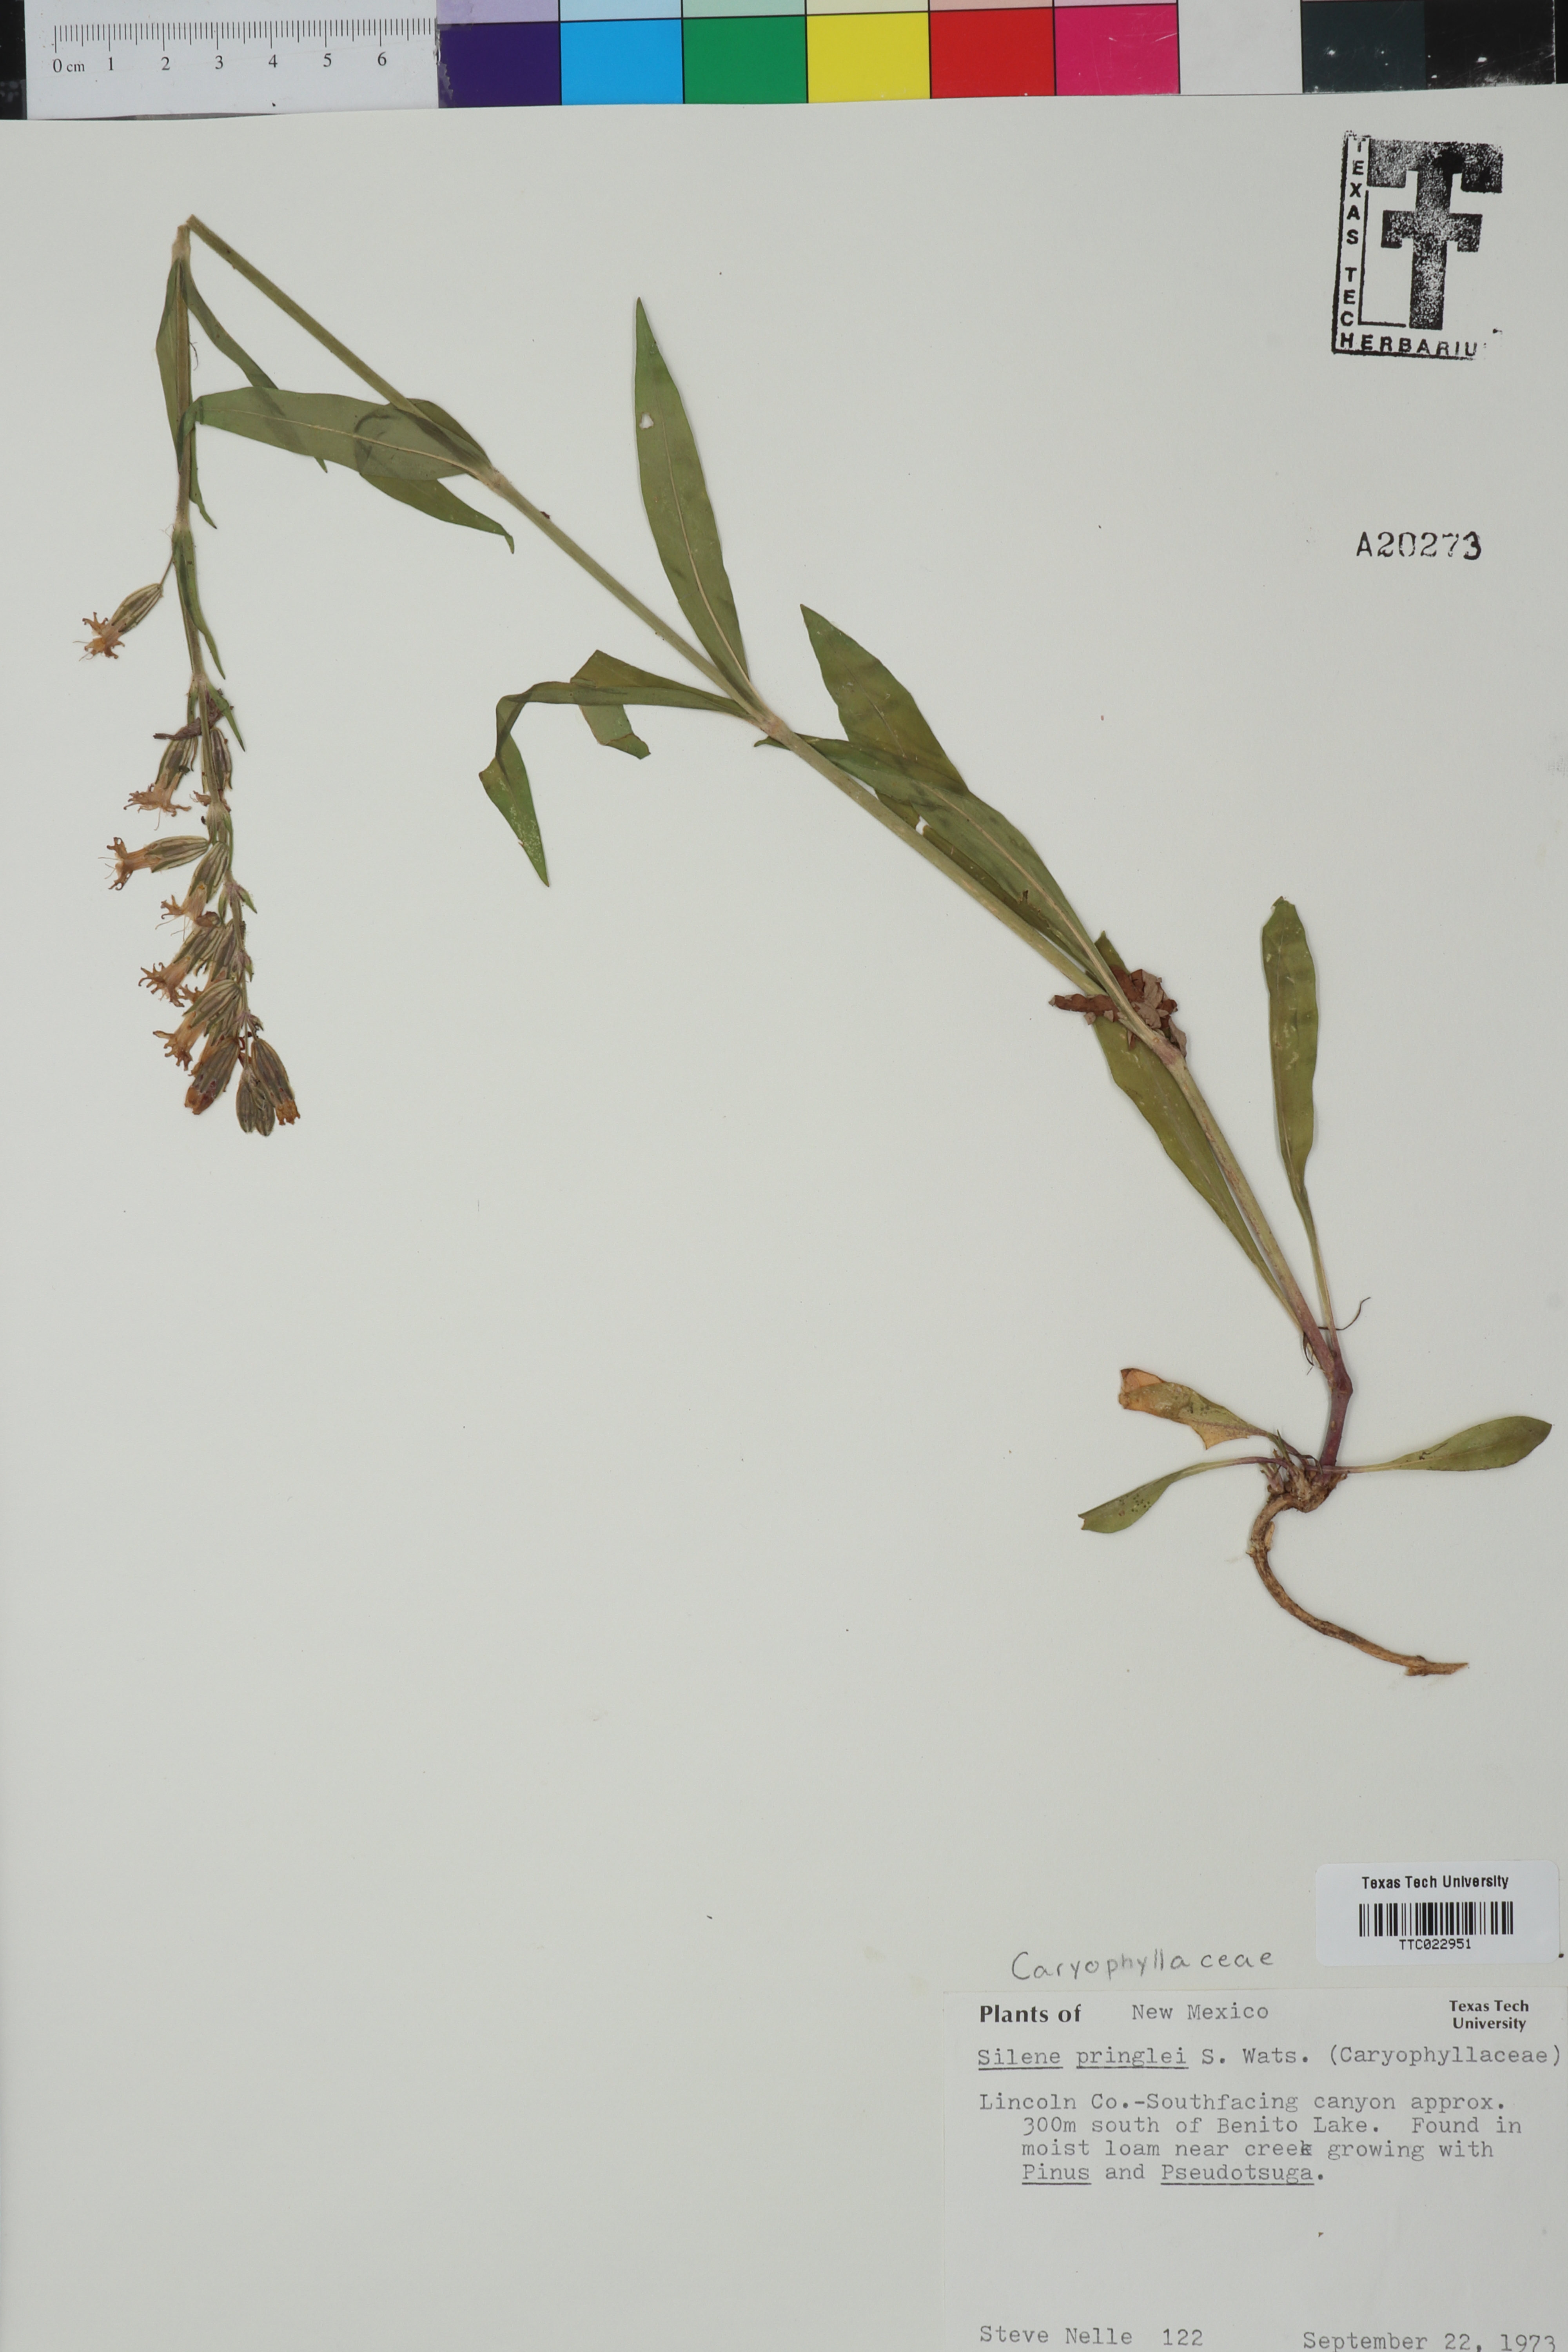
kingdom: Plantae
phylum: Tracheophyta
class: Magnoliopsida
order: Caryophyllales
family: Caryophyllaceae
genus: Silene
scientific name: Silene scouleri
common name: Scouler's campion
